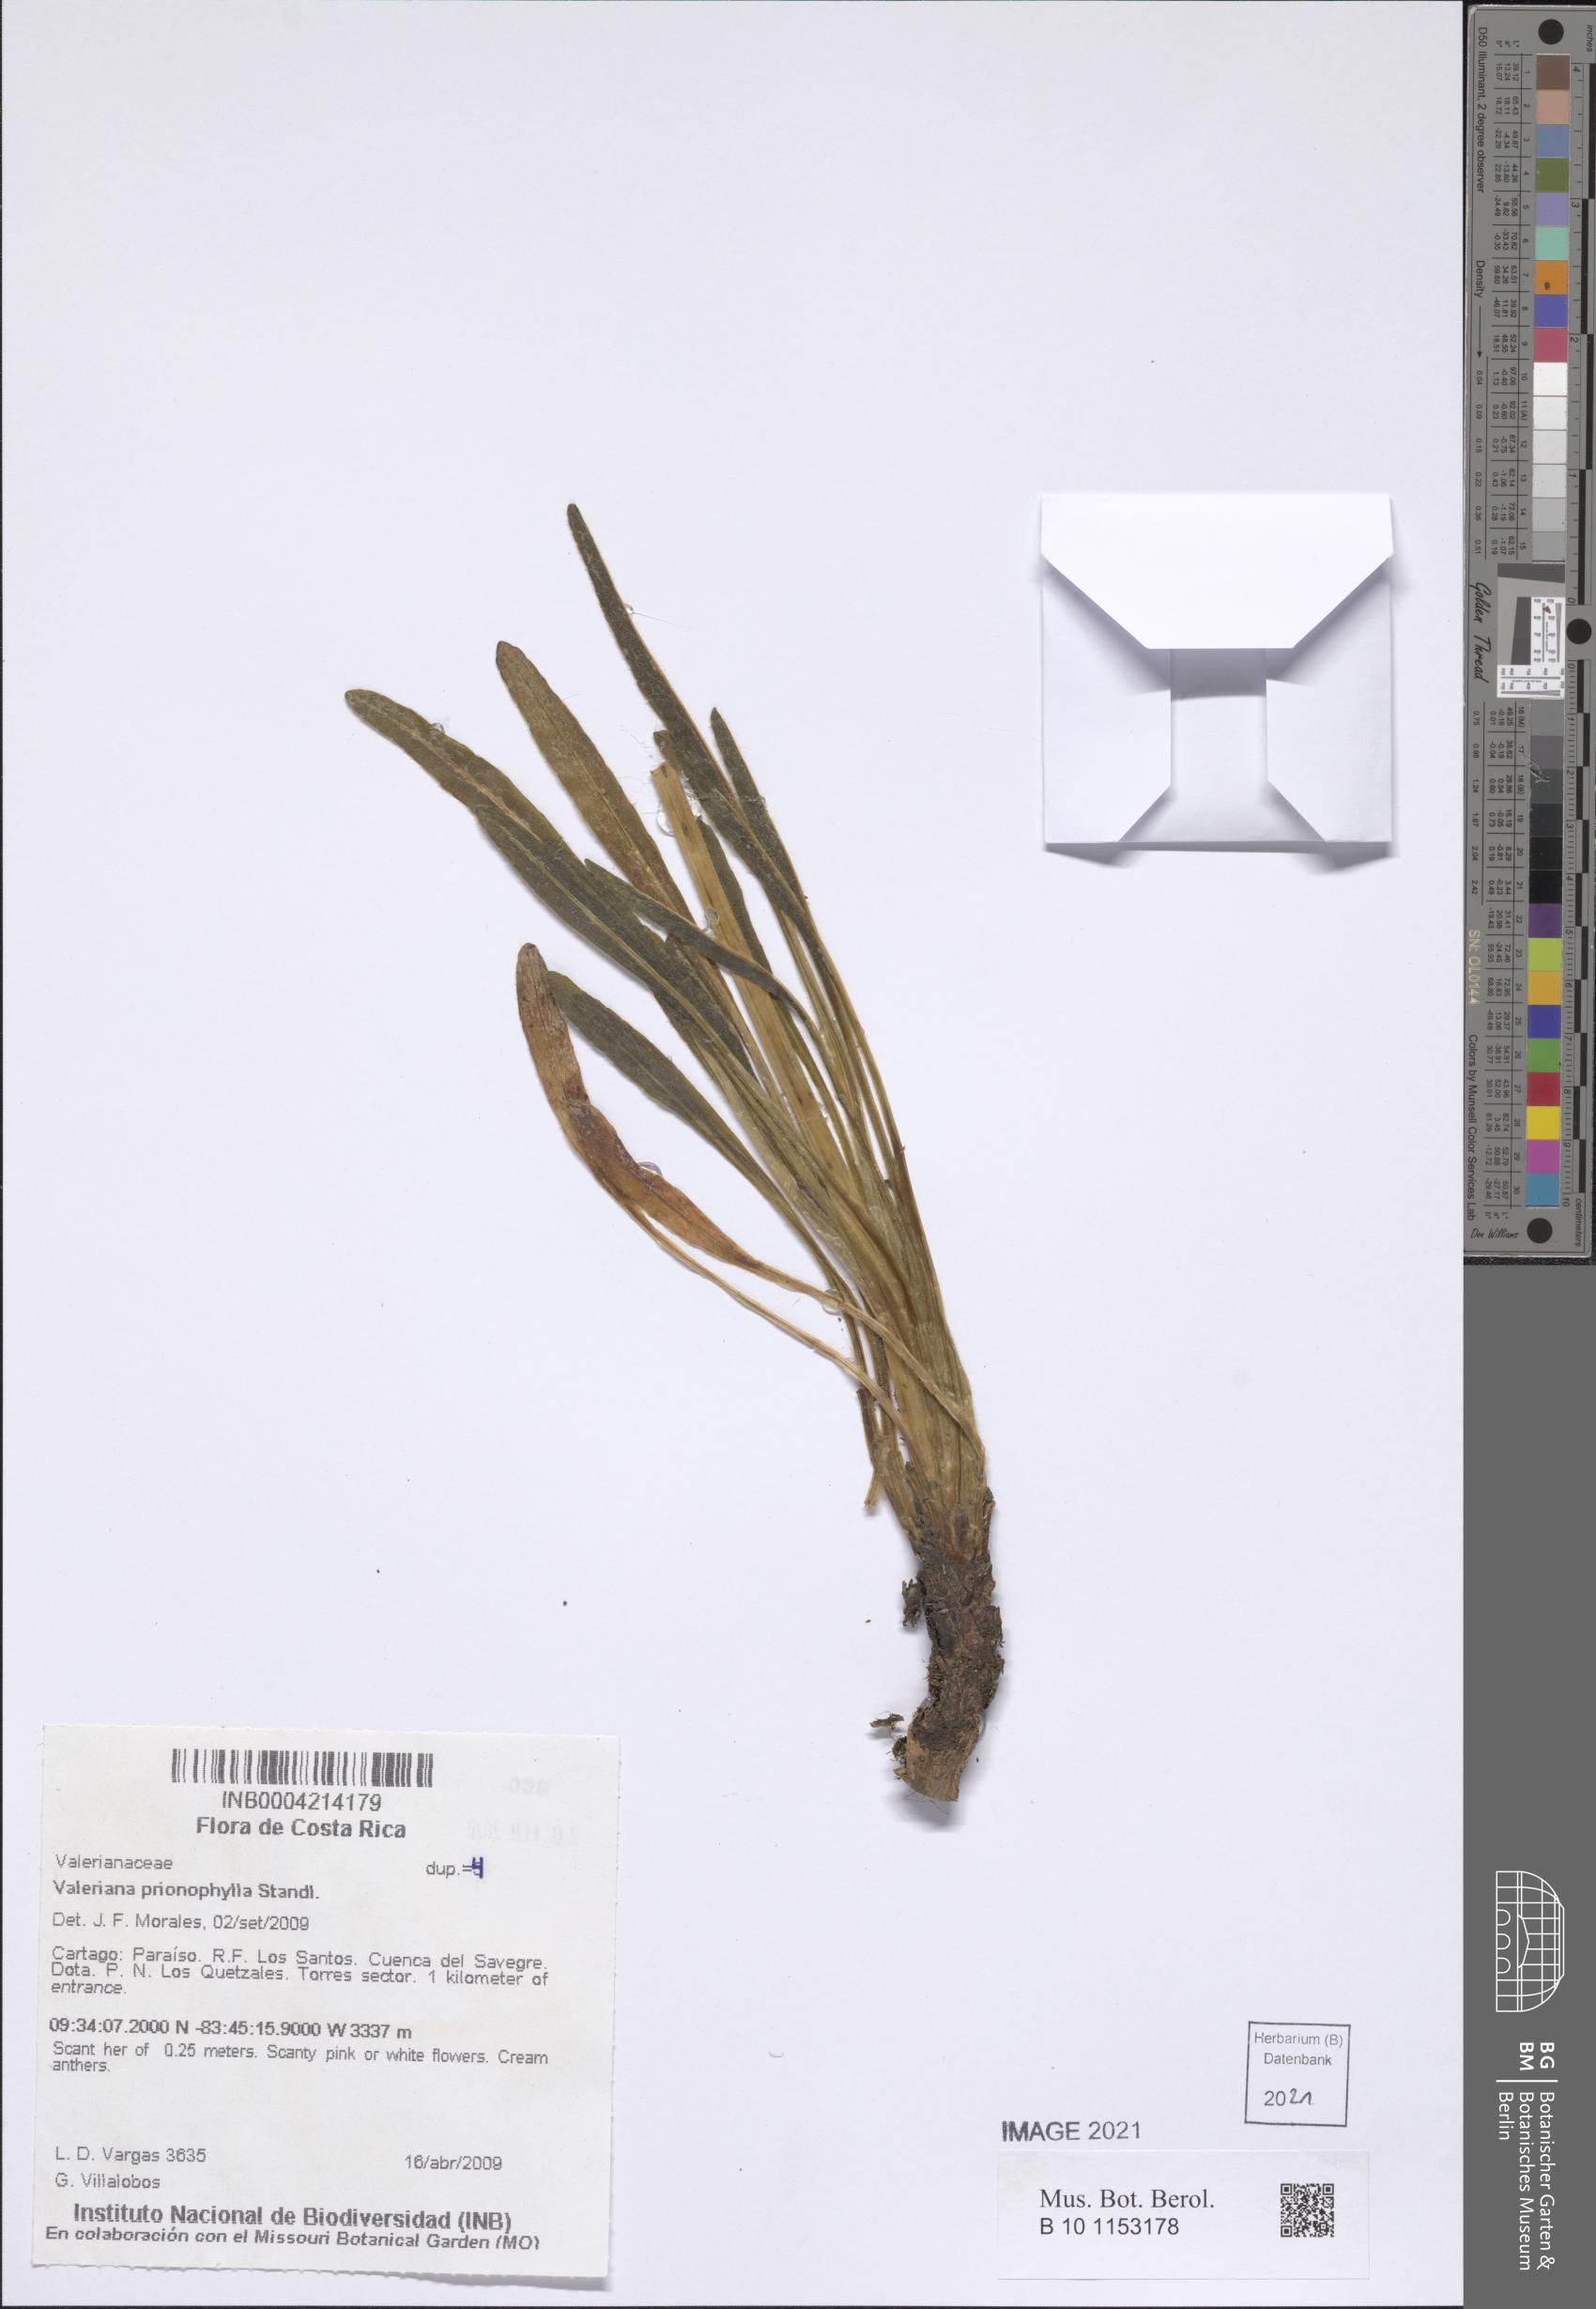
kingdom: Plantae
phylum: Tracheophyta
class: Magnoliopsida
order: Dipsacales
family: Caprifoliaceae
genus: Valeriana
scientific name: Valeriana prionophylla
